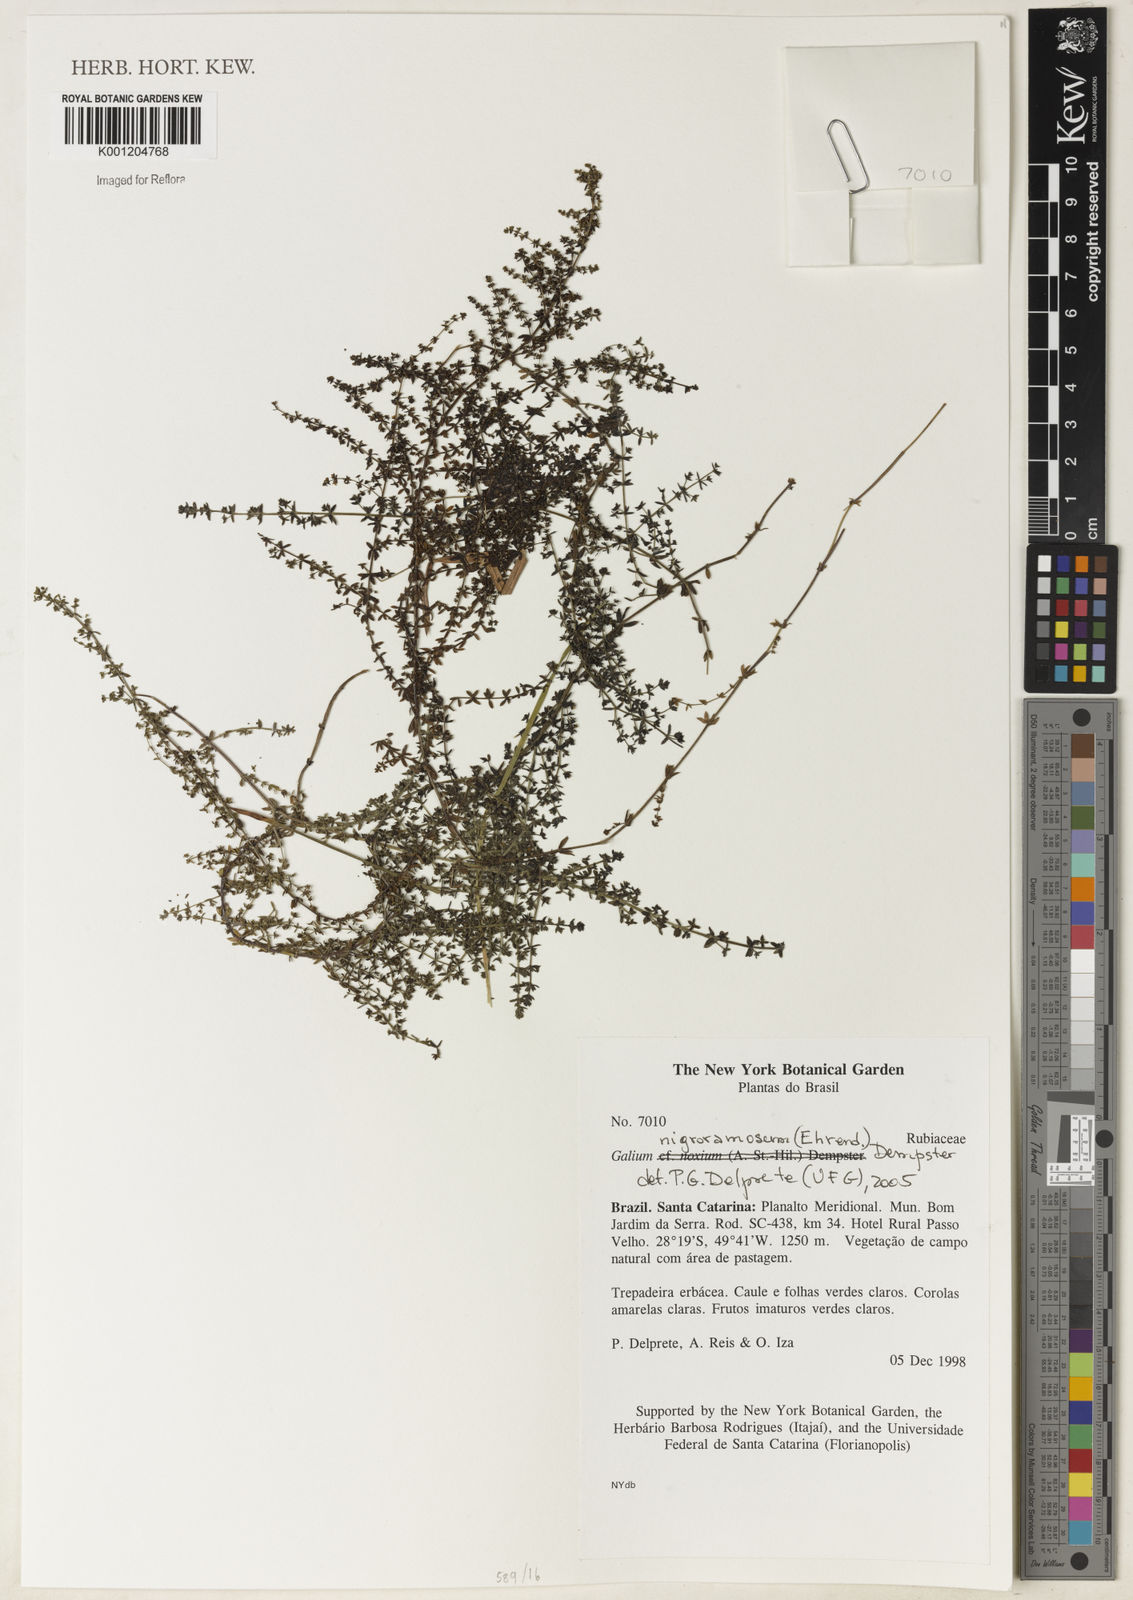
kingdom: Plantae
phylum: Tracheophyta
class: Magnoliopsida
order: Gentianales
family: Rubiaceae
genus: Galium
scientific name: Galium nigroramosum
